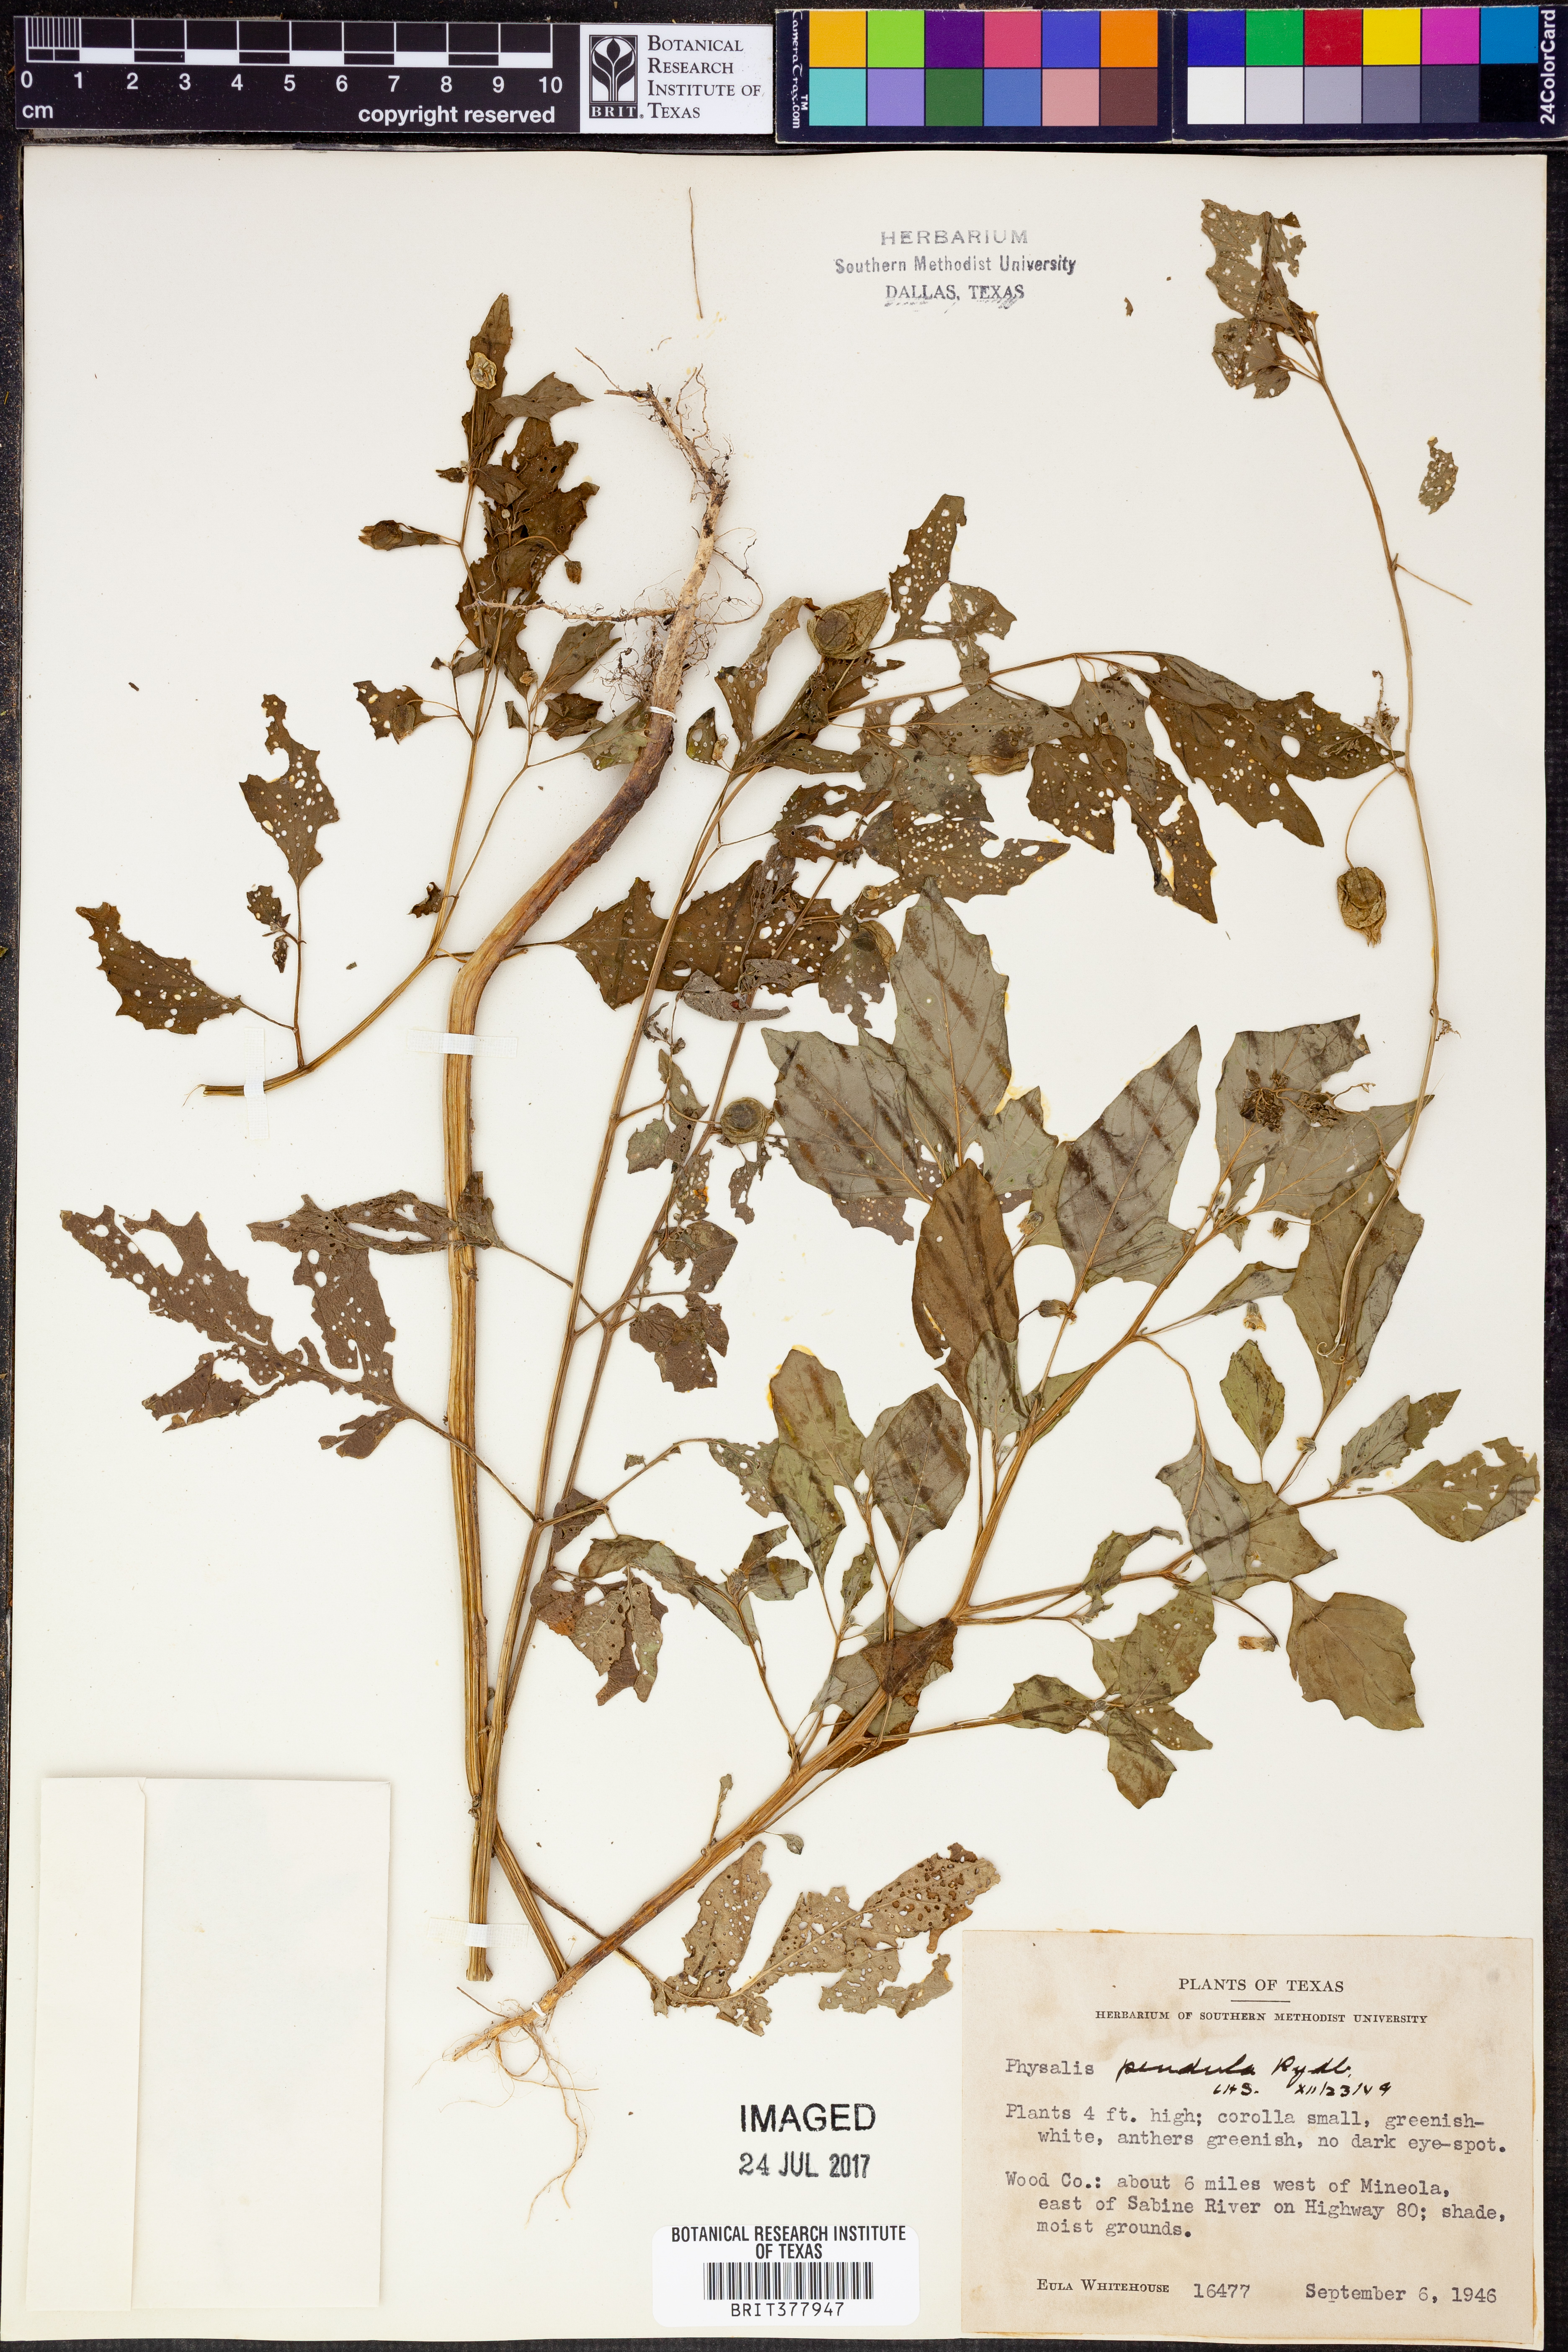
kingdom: Plantae
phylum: Tracheophyta
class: Magnoliopsida
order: Solanales
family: Solanaceae
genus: Physalis
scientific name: Physalis angulata
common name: Angular winter-cherry
